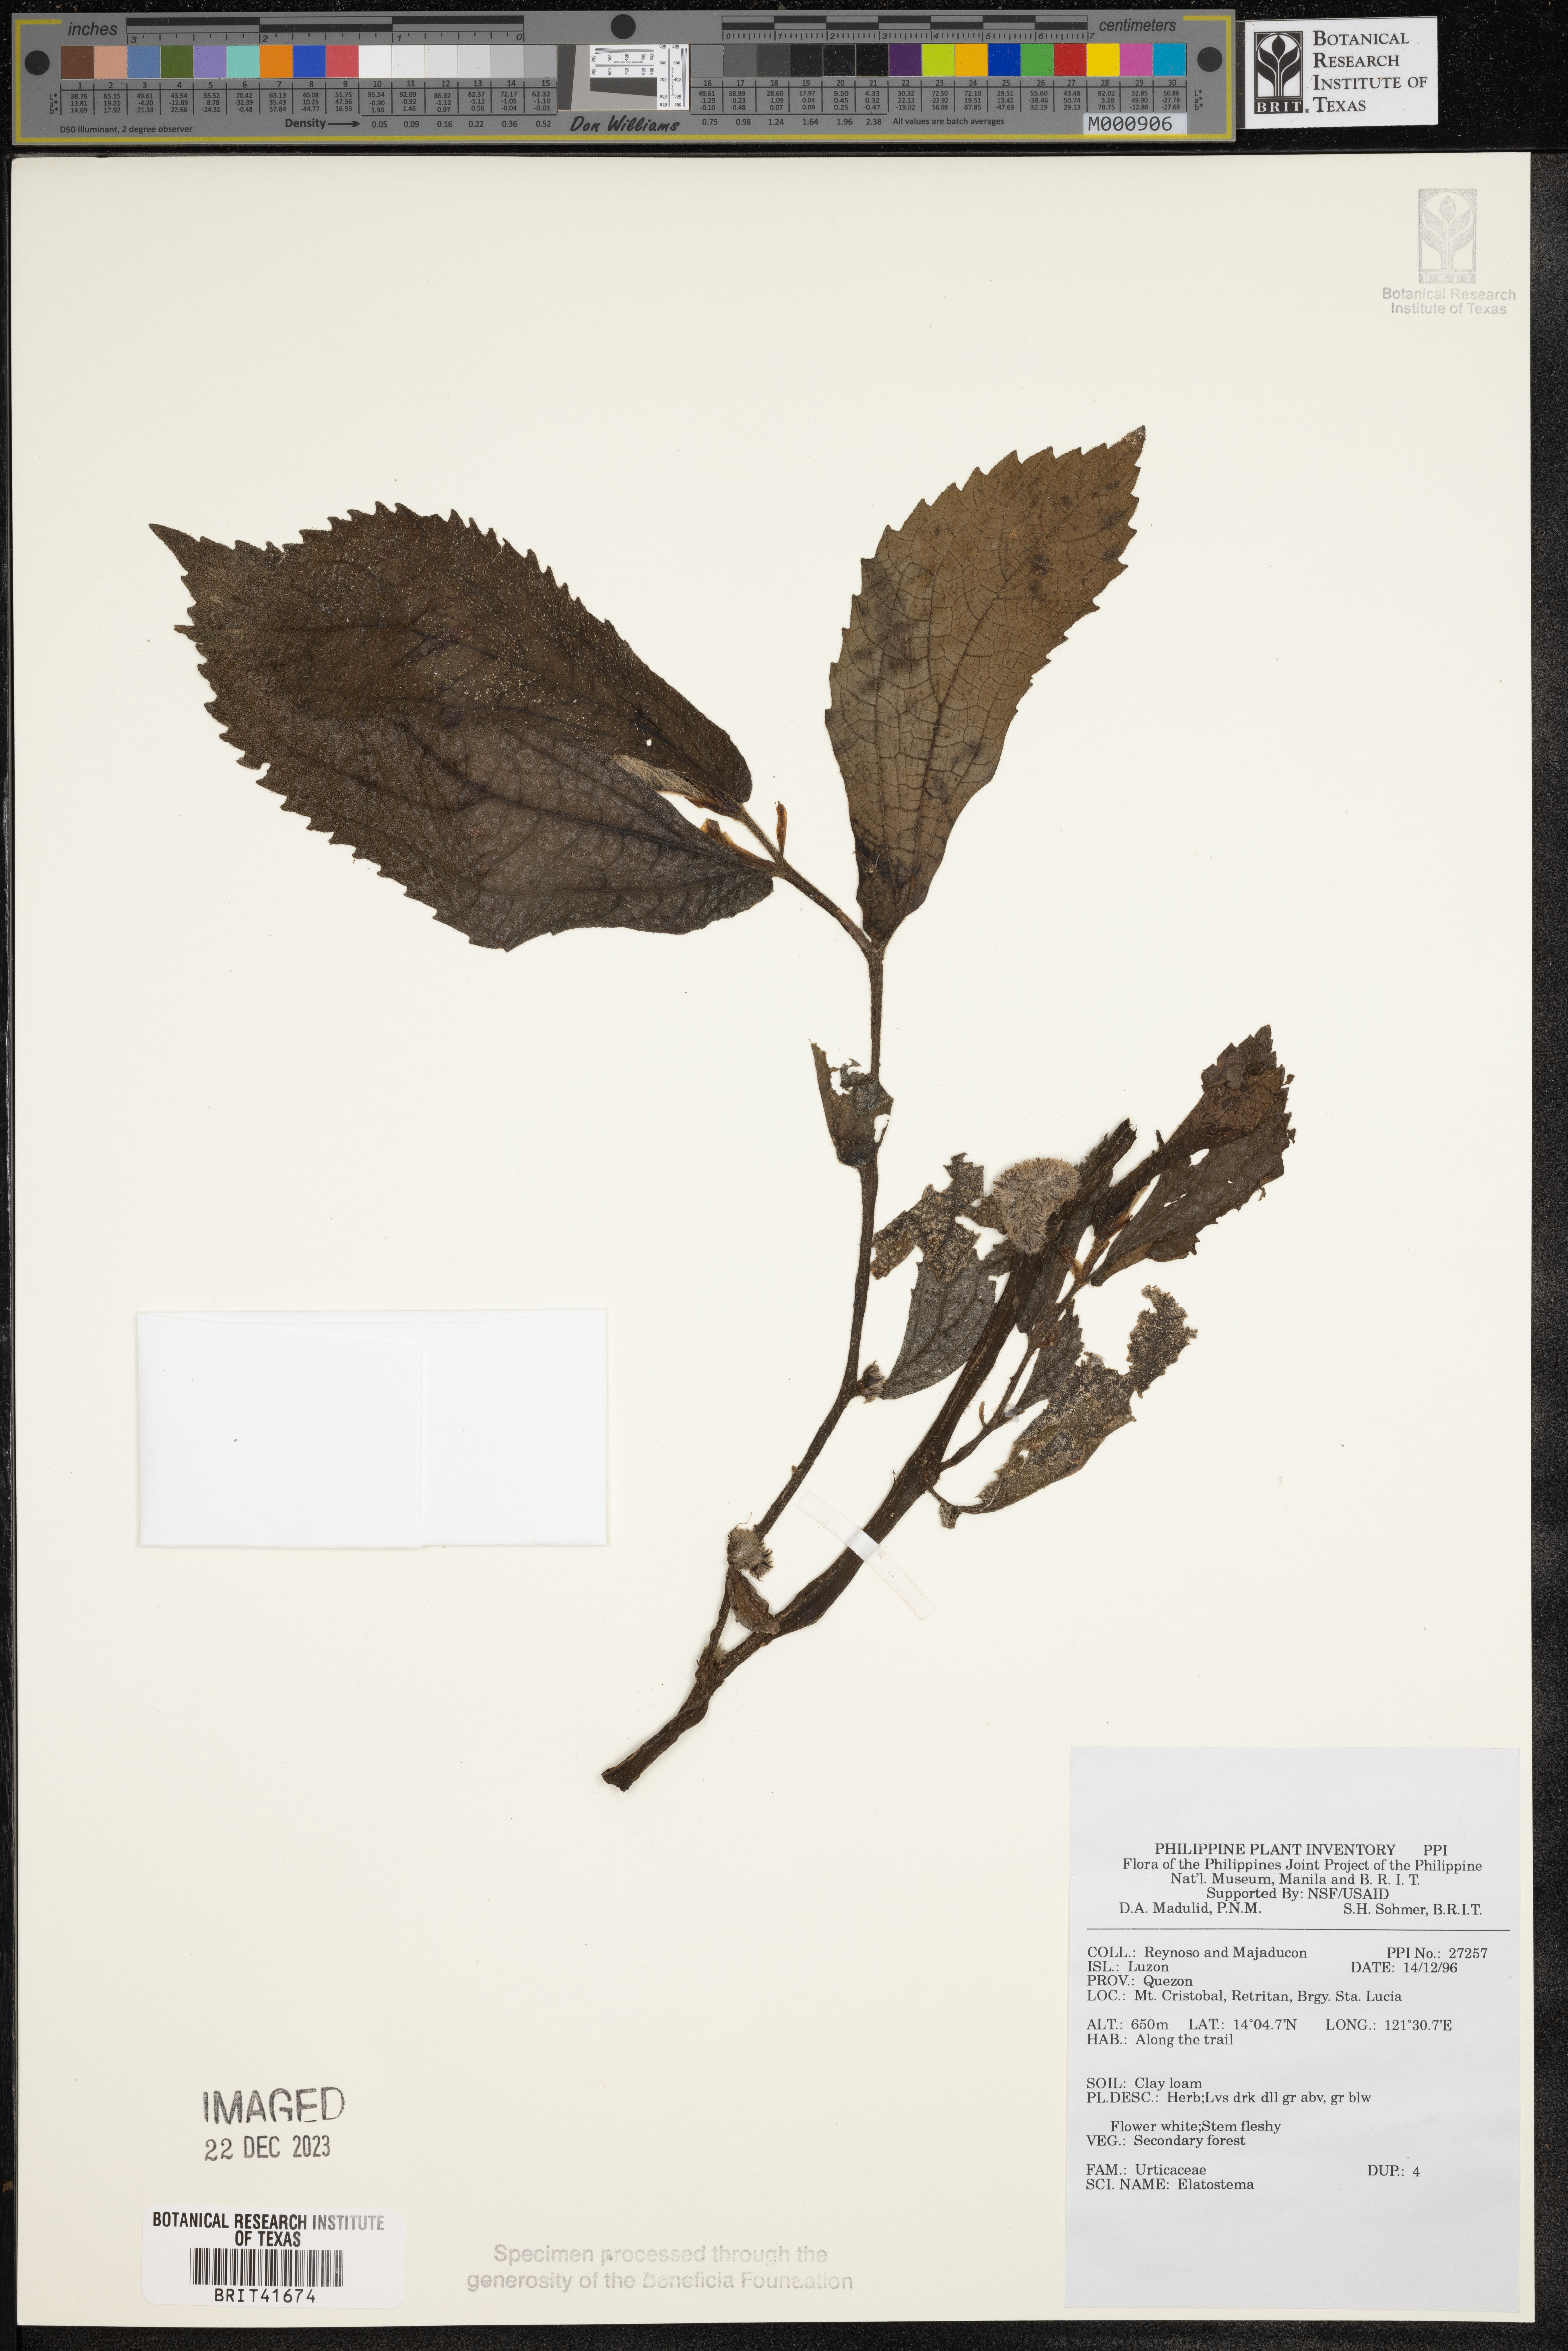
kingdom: Plantae
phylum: Tracheophyta
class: Magnoliopsida
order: Rosales
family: Urticaceae
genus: Elatostema
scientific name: Elatostema
